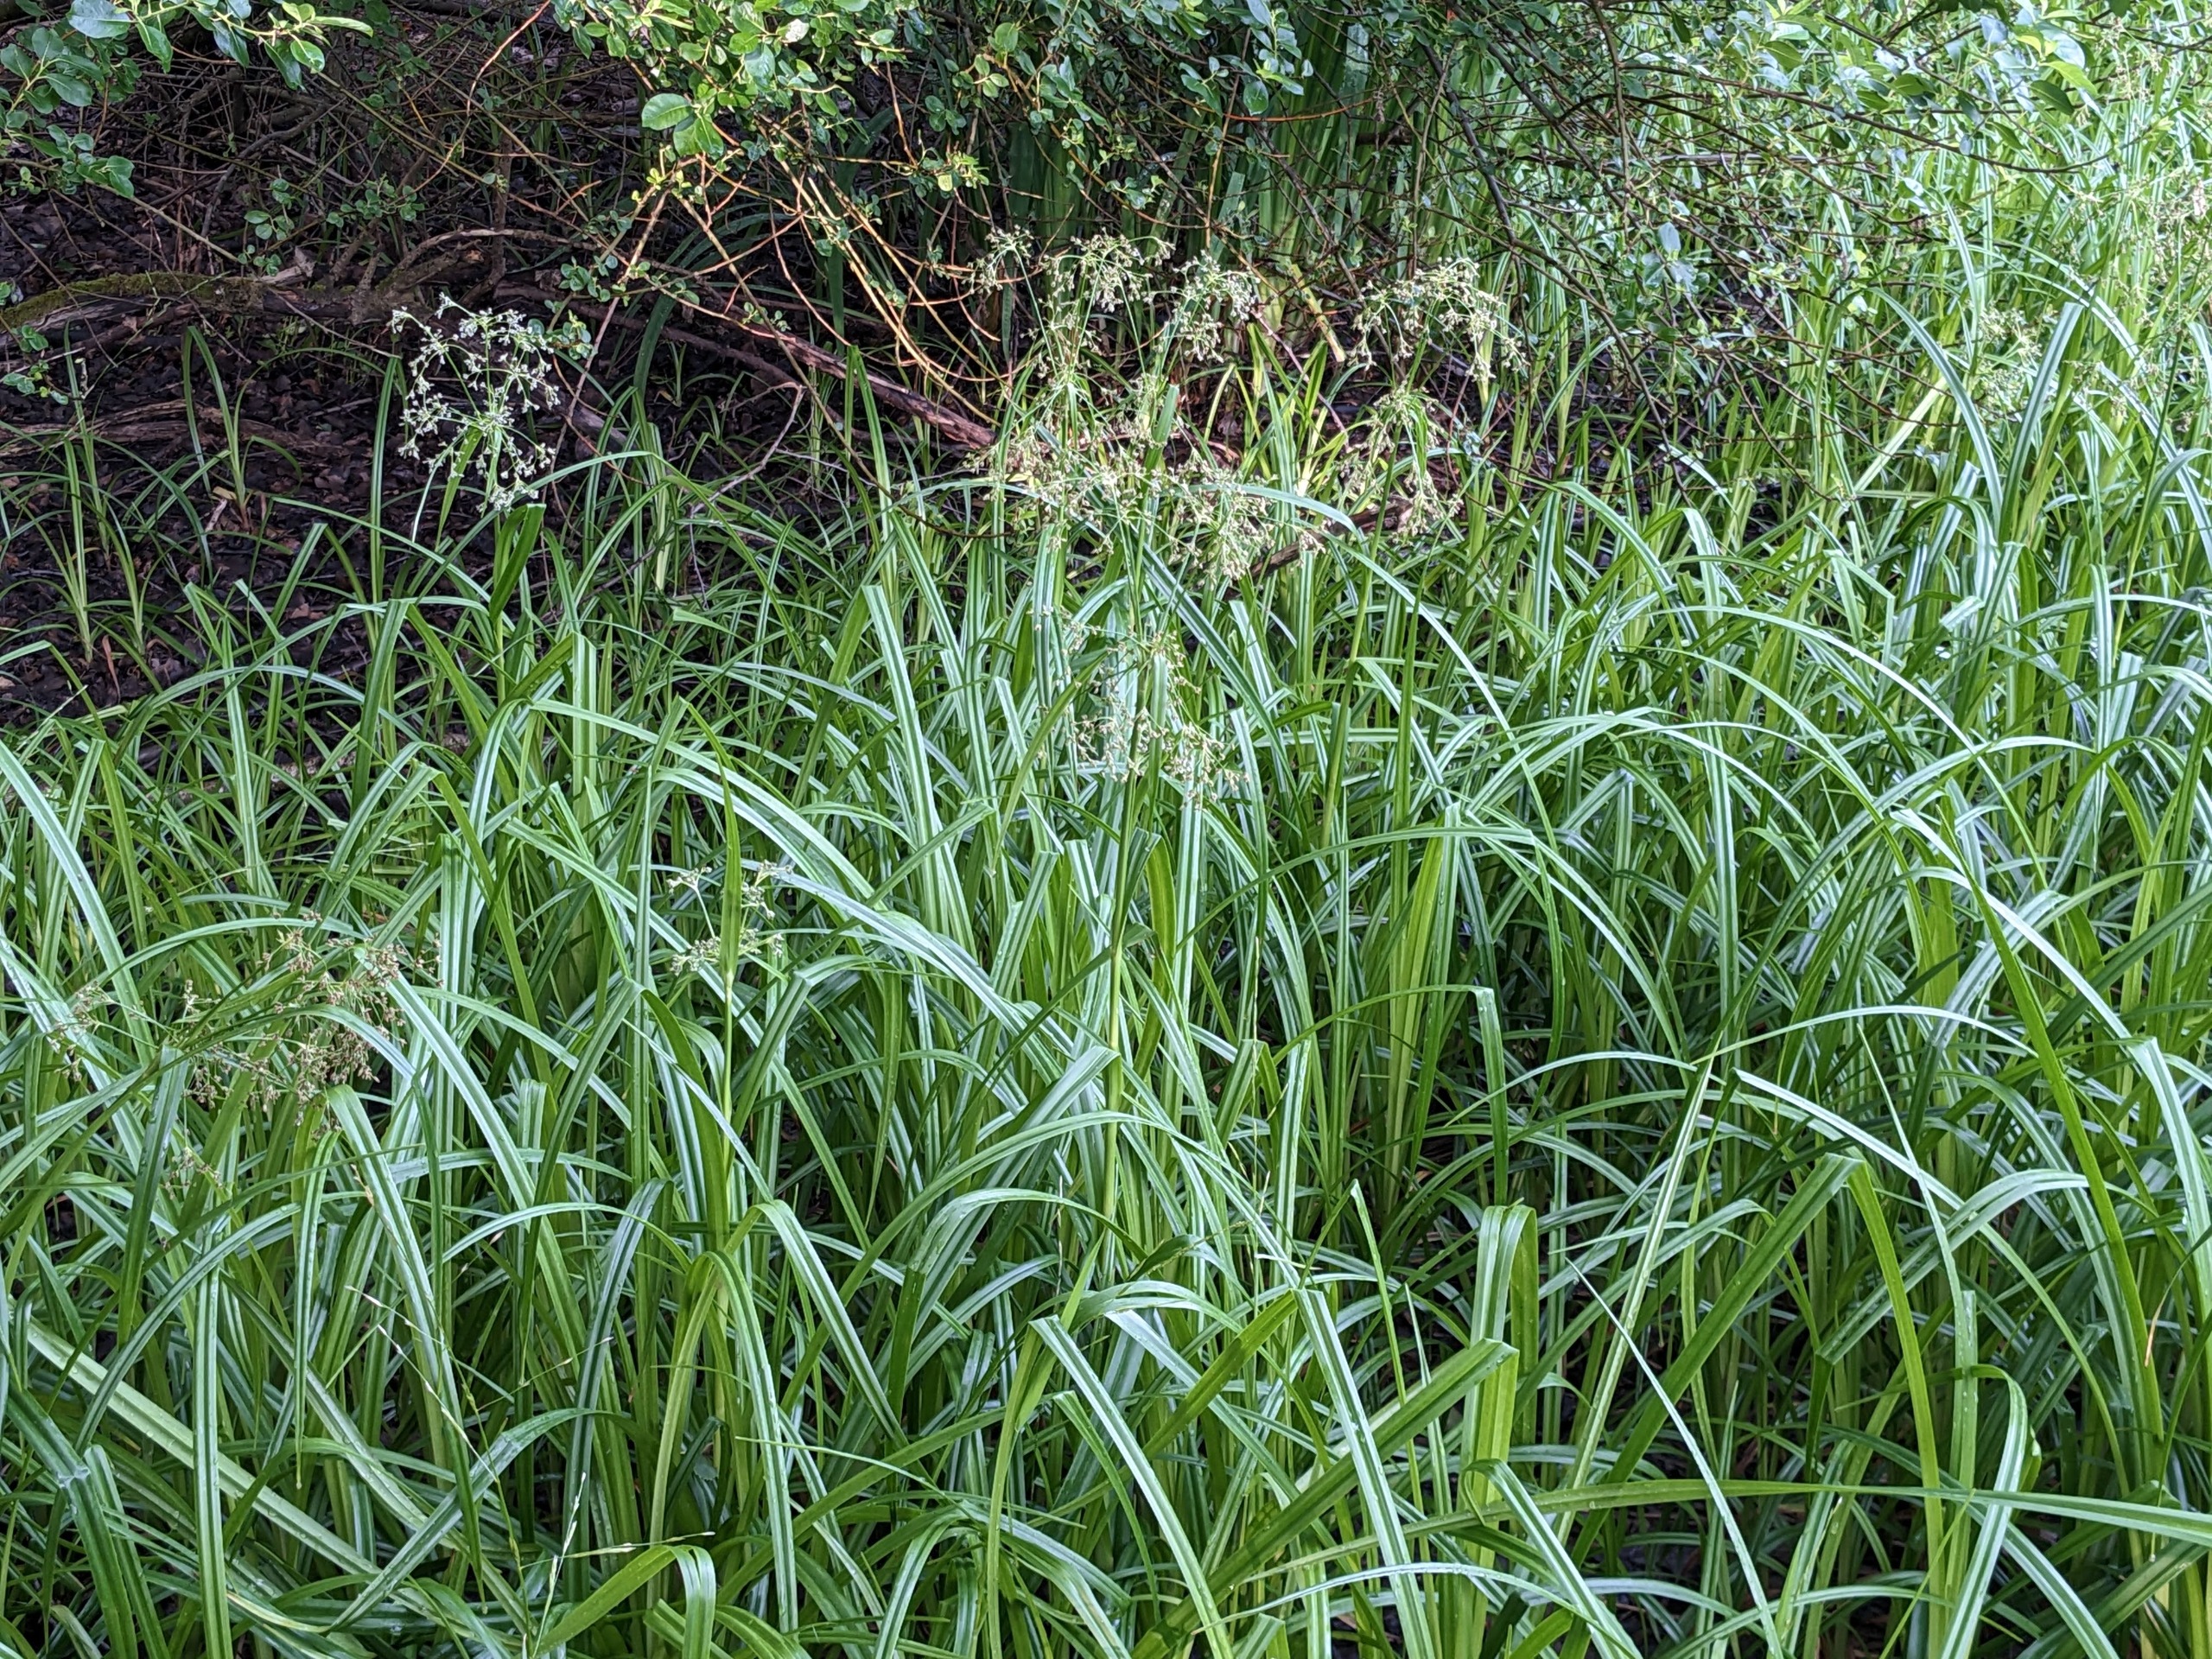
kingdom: Plantae
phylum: Tracheophyta
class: Liliopsida
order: Poales
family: Cyperaceae
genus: Scirpus
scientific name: Scirpus sylvaticus
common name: Skov-kogleaks
